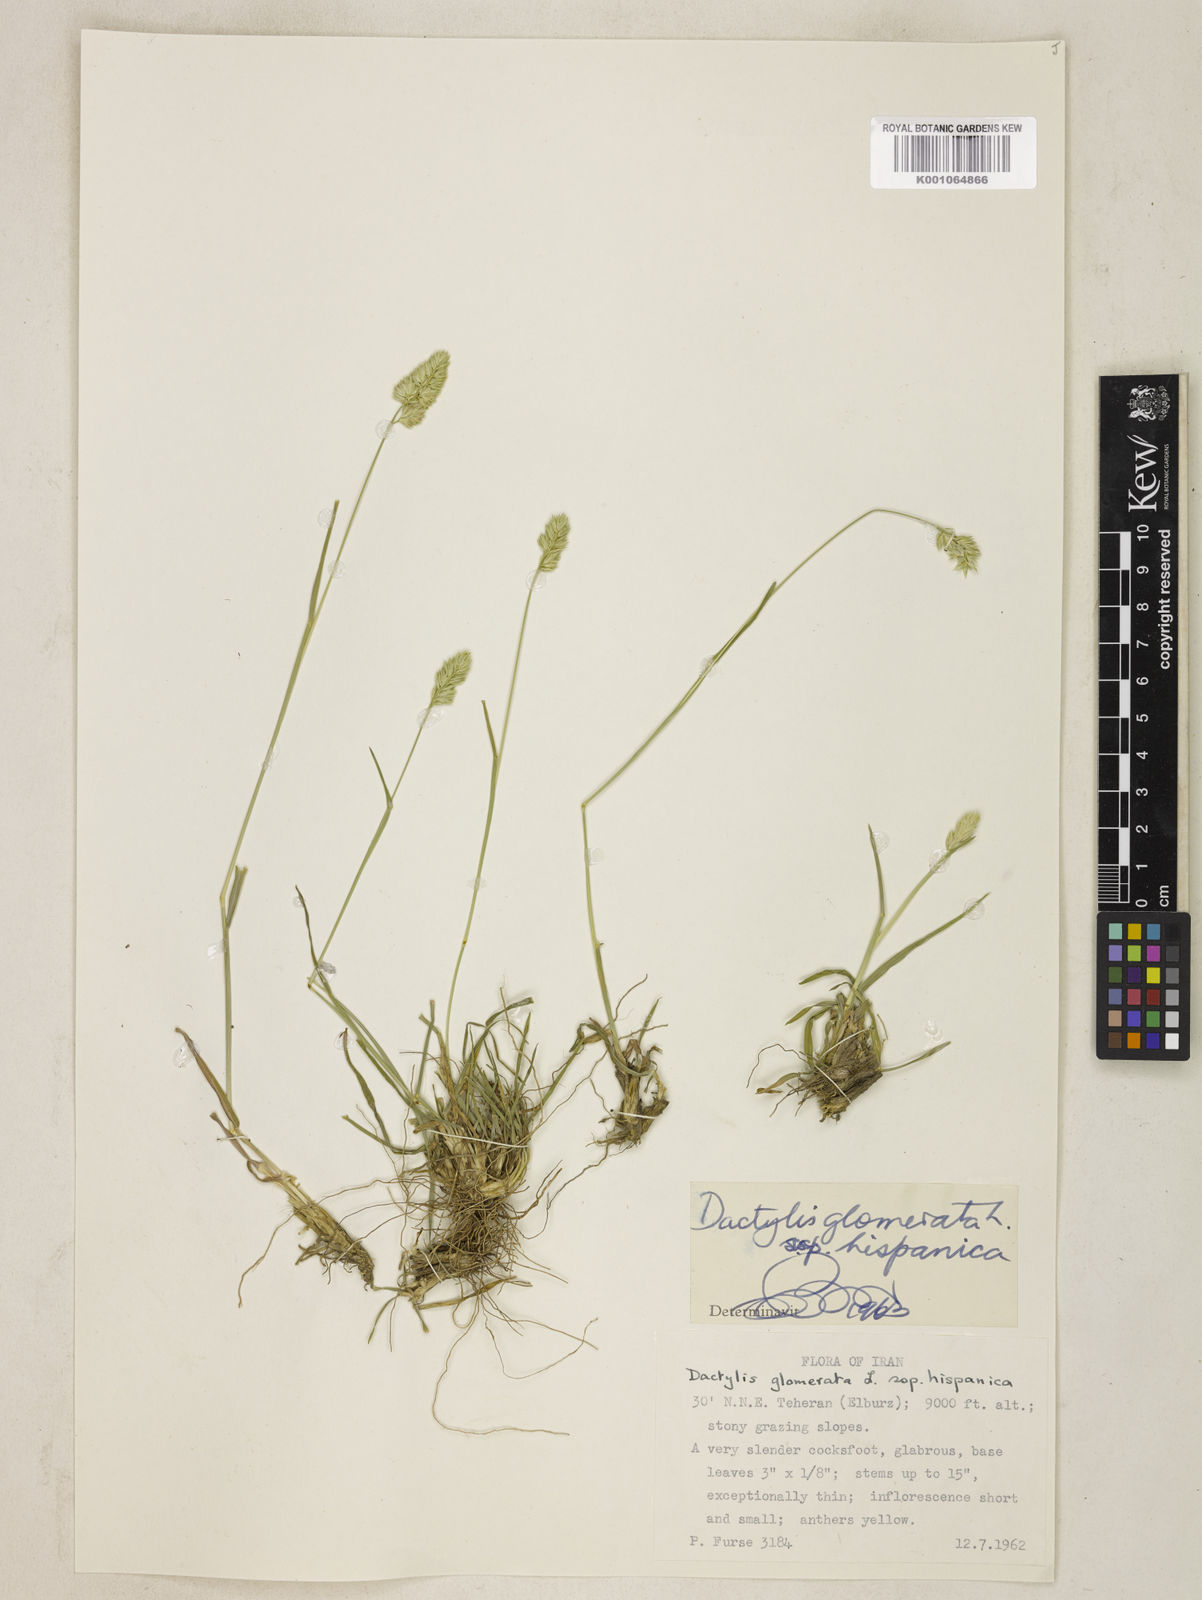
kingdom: Plantae
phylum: Tracheophyta
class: Liliopsida
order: Poales
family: Poaceae
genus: Dactylis
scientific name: Dactylis glomerata
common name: Orchardgrass
